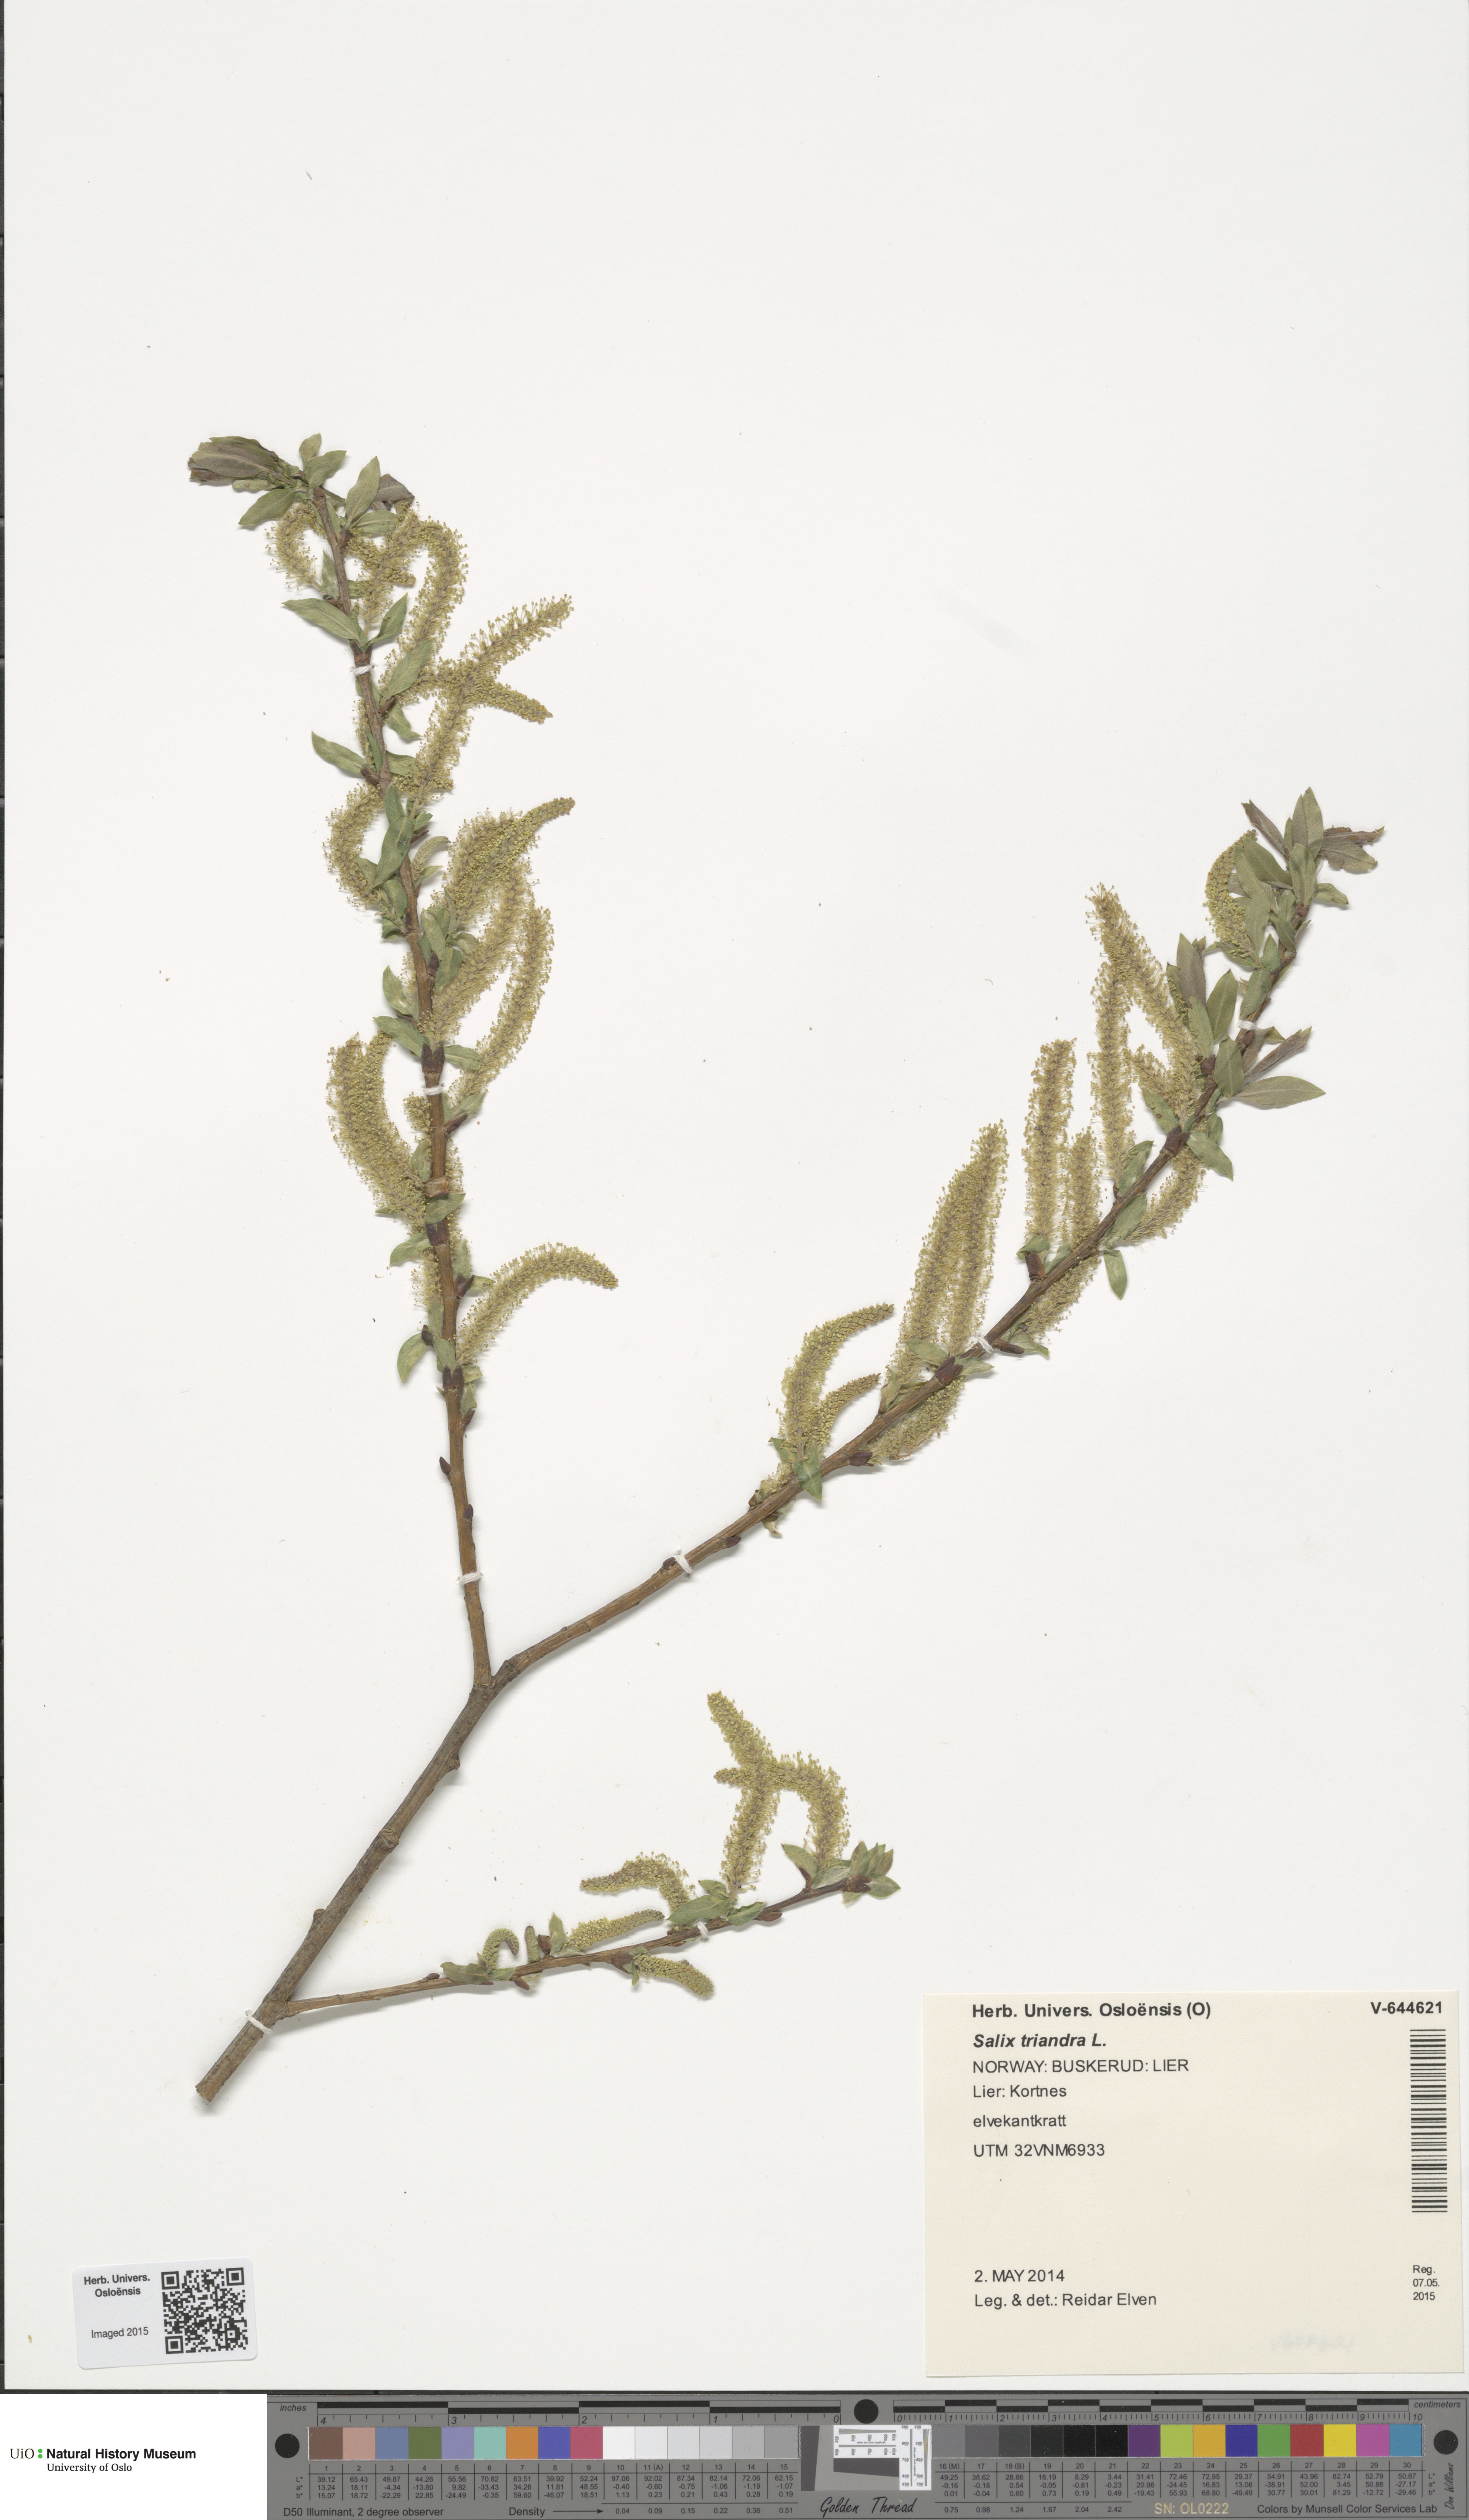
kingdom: Plantae
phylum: Tracheophyta
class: Magnoliopsida
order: Malpighiales
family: Salicaceae
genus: Salix
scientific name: Salix triandra
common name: Almond willow
